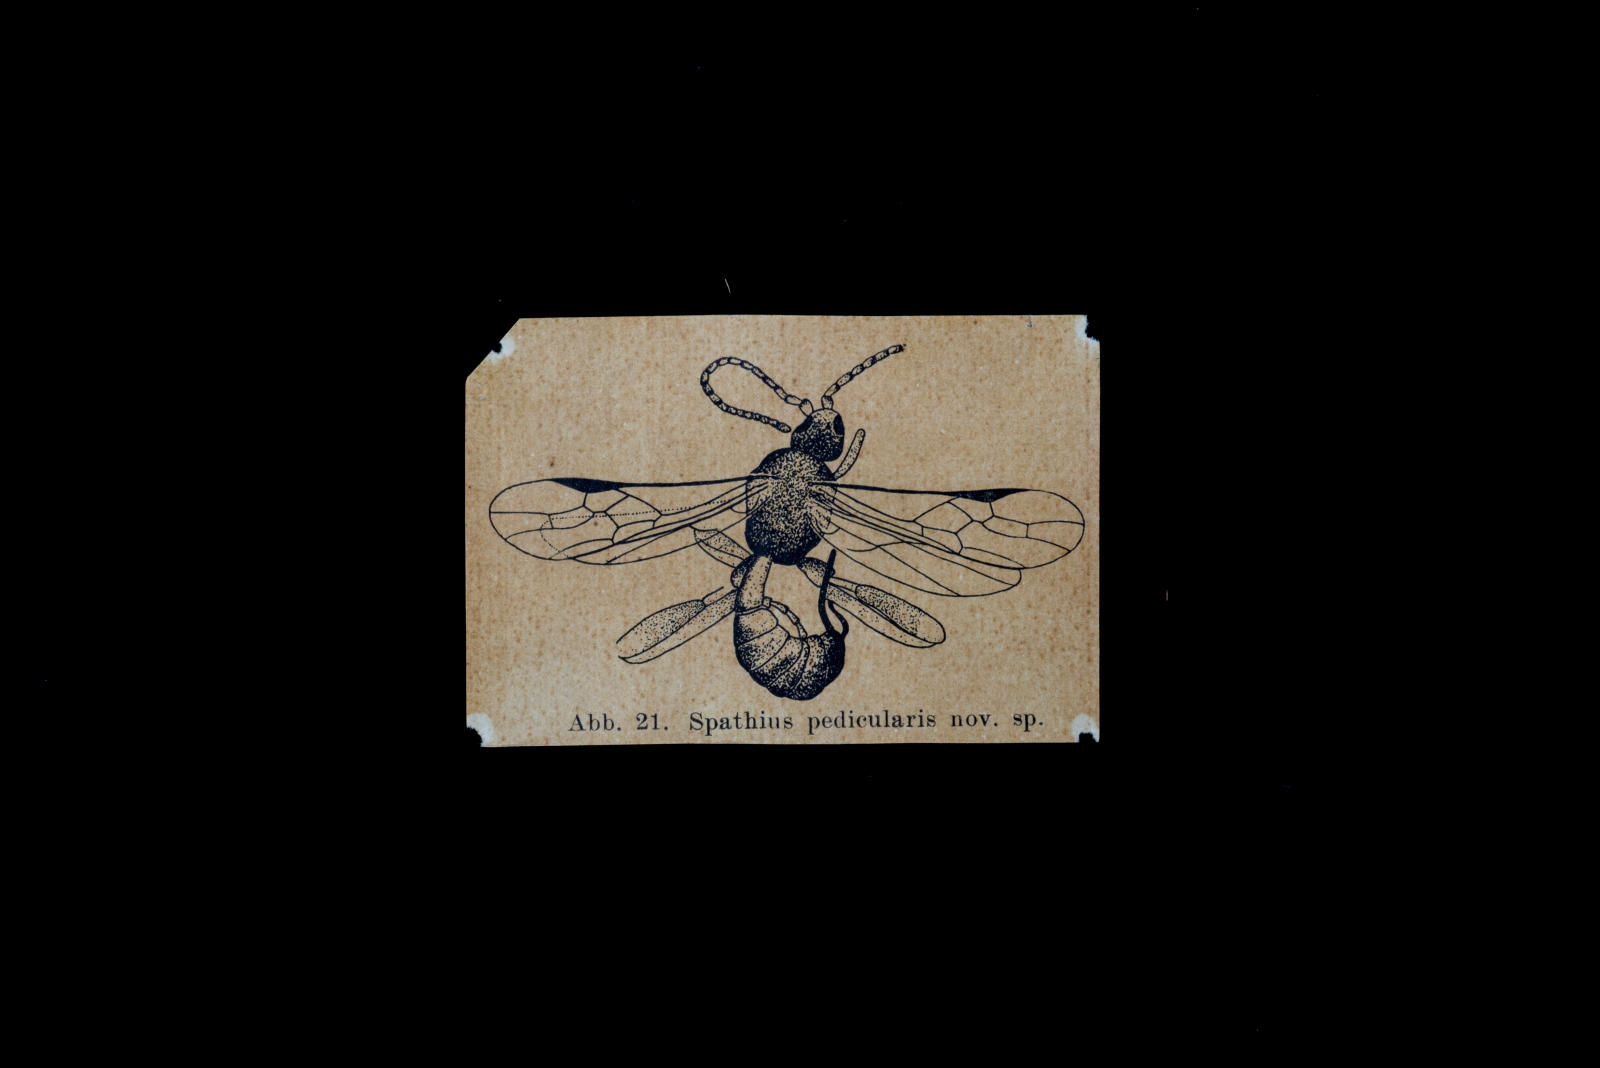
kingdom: Animalia
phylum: Arthropoda
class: Insecta
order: Hymenoptera
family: Braconidae
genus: Spathius
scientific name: Spathius pedicularis
